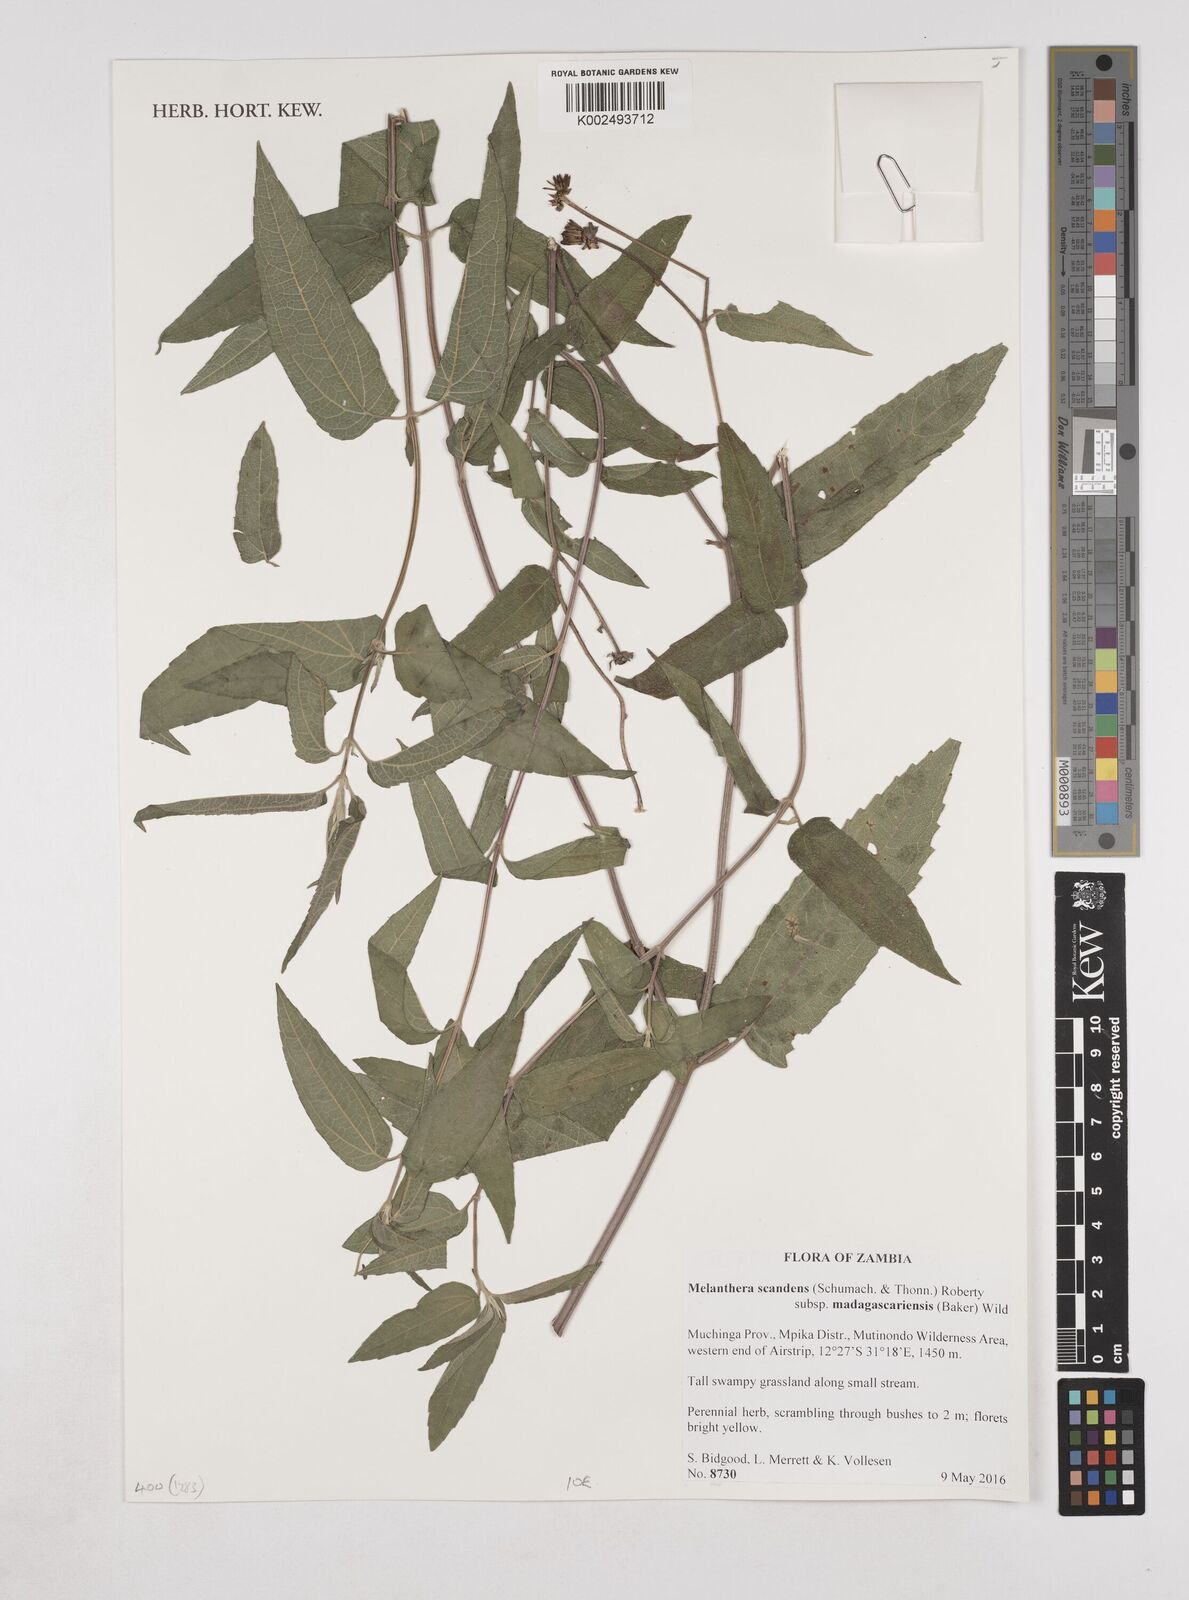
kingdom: Plantae
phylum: Tracheophyta
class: Magnoliopsida
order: Asterales
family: Asteraceae
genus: Lipotriche
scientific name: Lipotriche scandens
